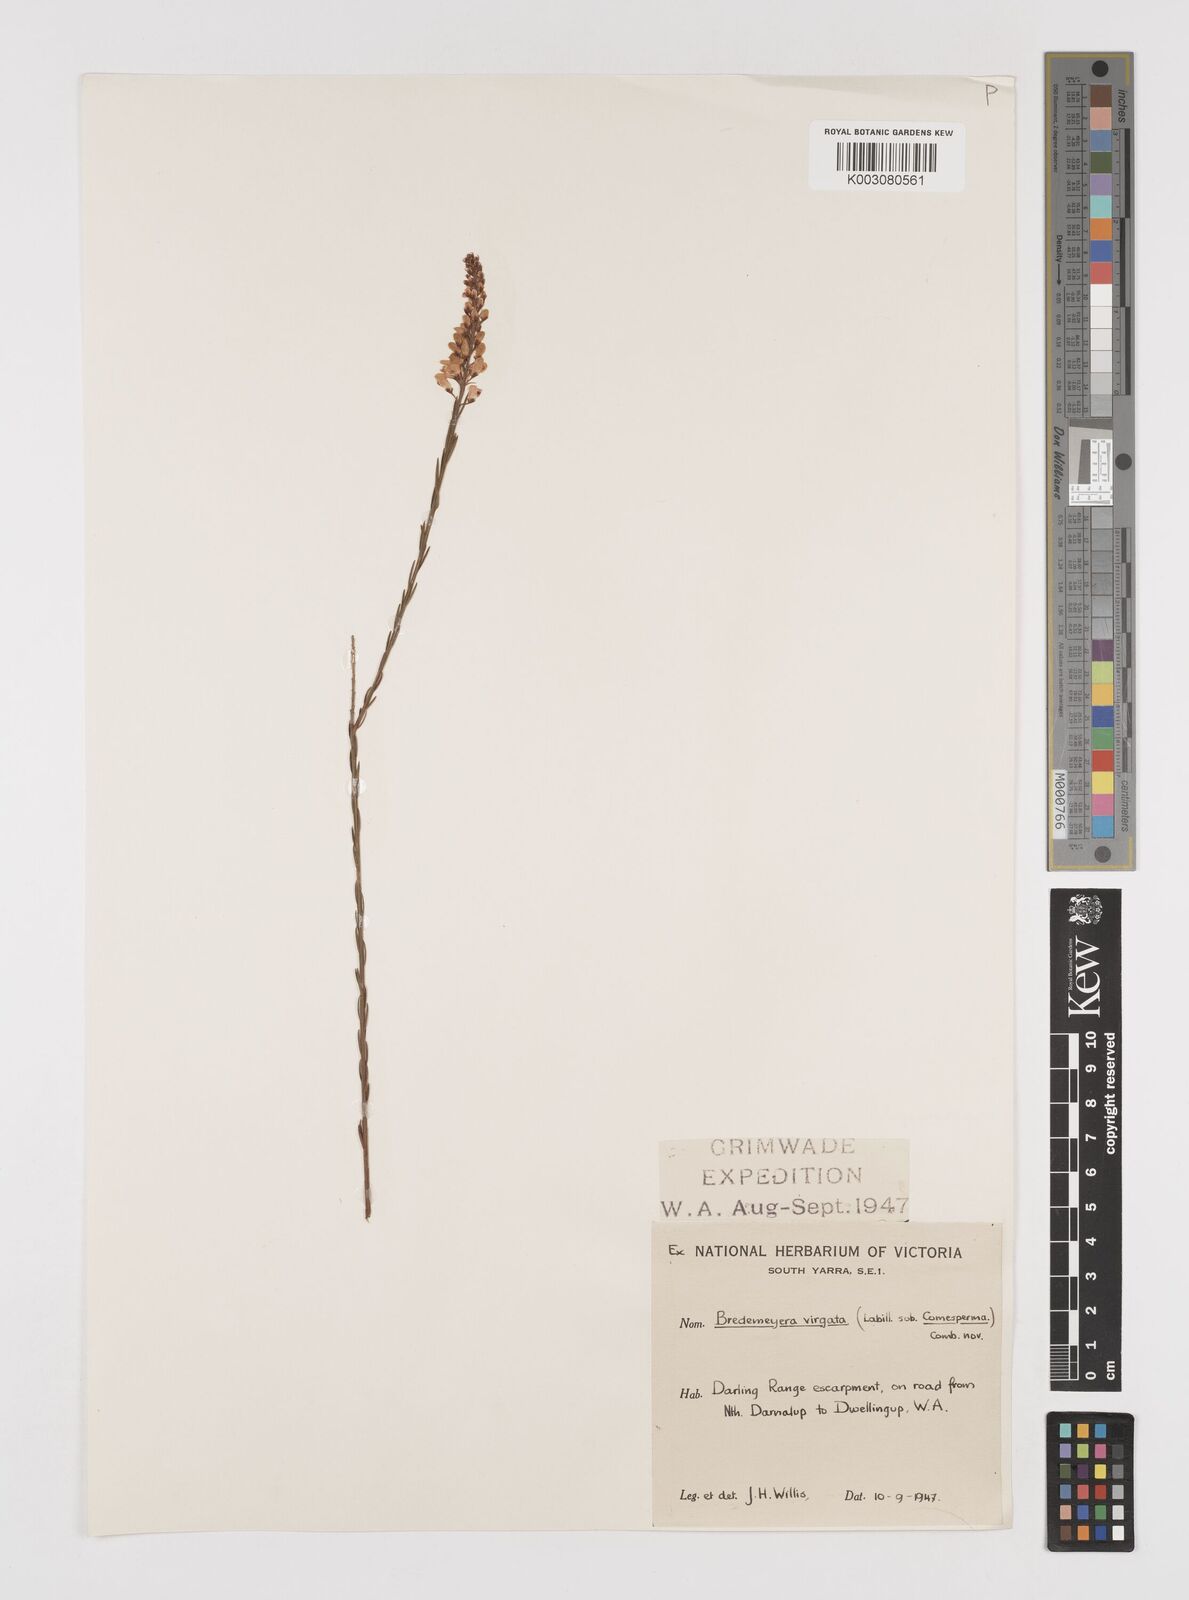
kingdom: Plantae
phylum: Tracheophyta
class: Magnoliopsida
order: Fabales
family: Polygalaceae
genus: Comesperma
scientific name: Comesperma virgatum
